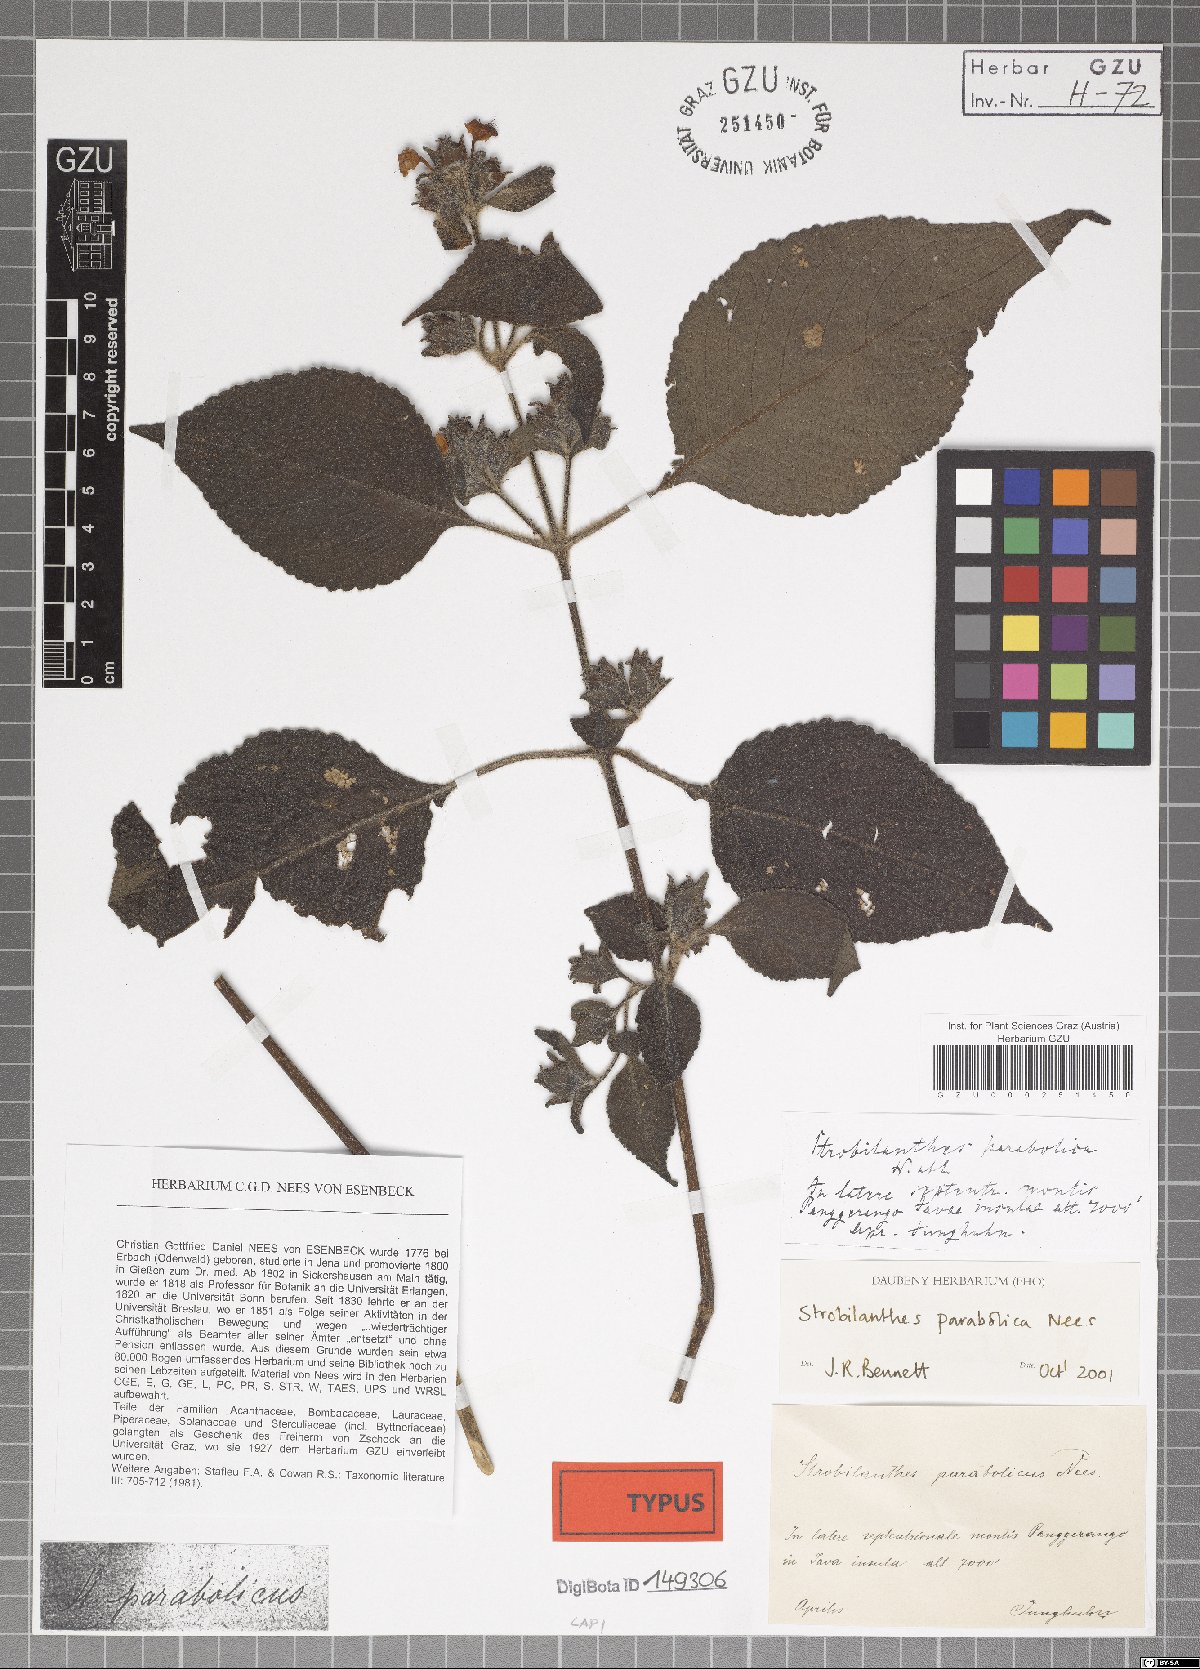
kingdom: Plantae
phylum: Tracheophyta
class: Magnoliopsida
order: Lamiales
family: Acanthaceae
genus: Strobilanthes
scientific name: Strobilanthes parabolica
